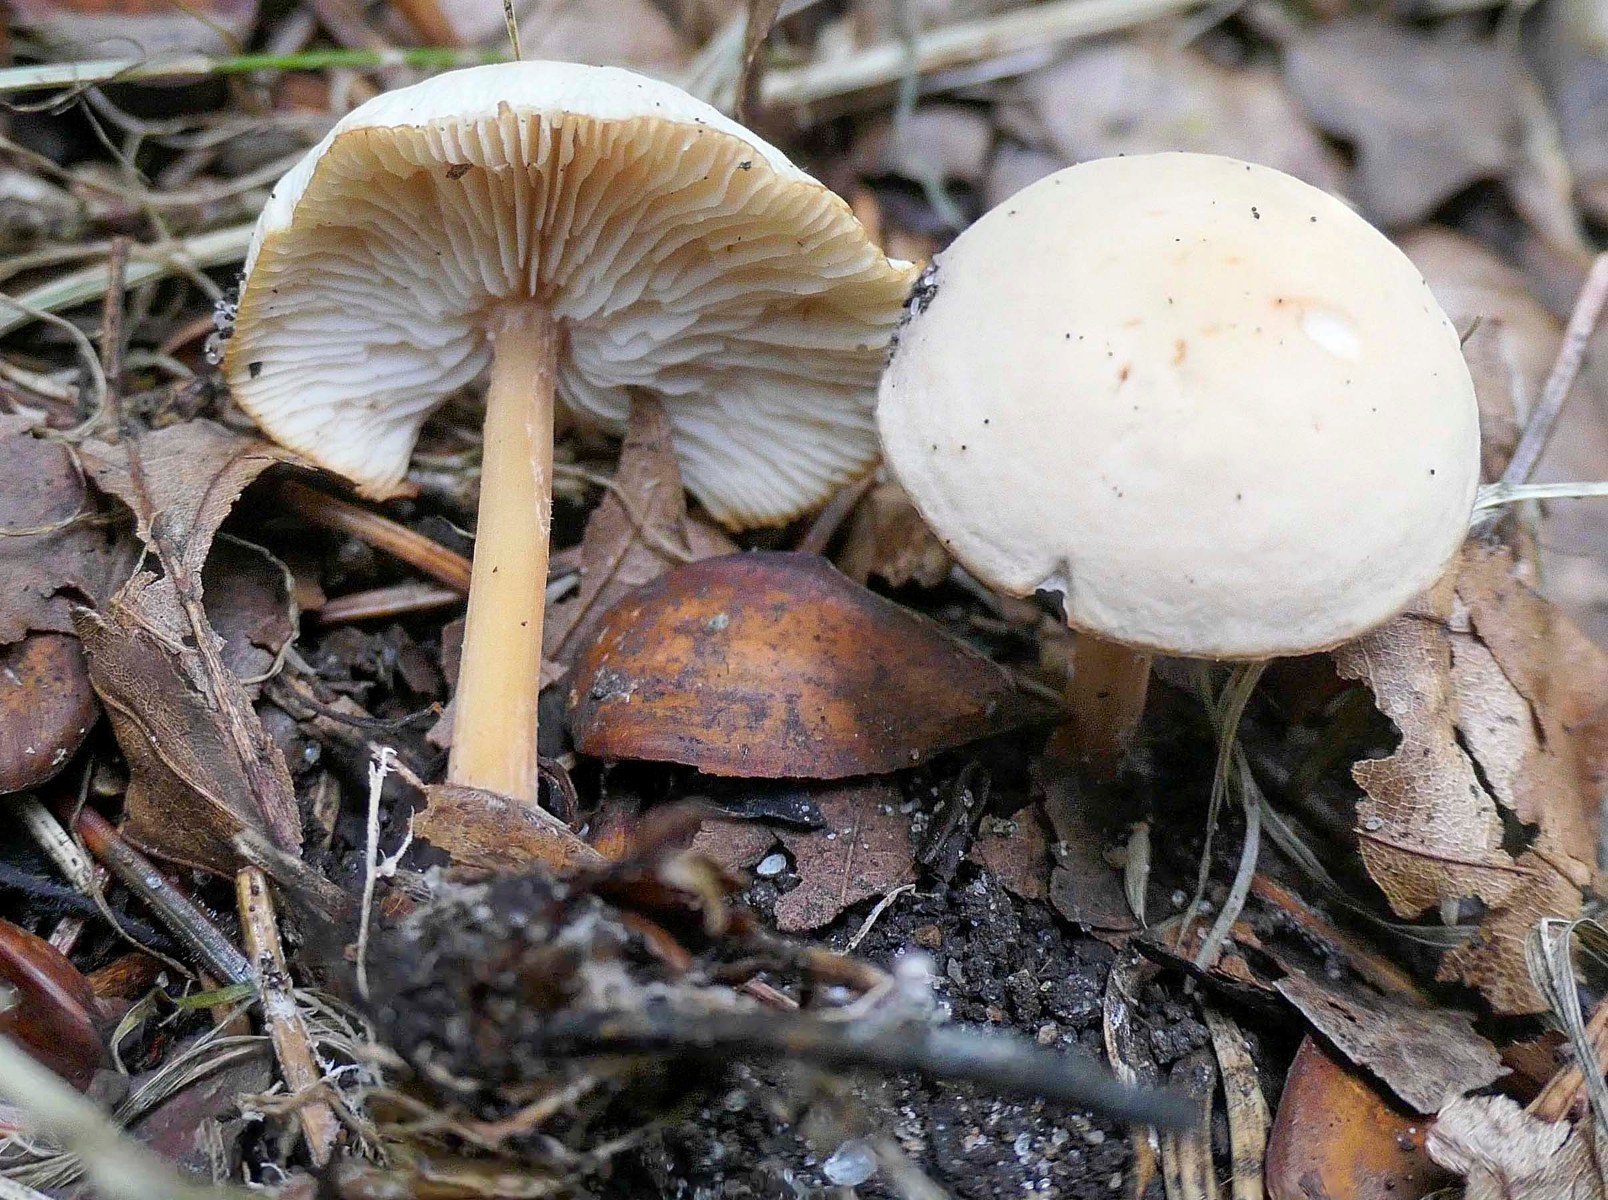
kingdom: Fungi
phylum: Basidiomycota
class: Agaricomycetes
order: Agaricales
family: Omphalotaceae
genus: Gymnopus
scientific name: Gymnopus aquosus
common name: bleg fladhat
